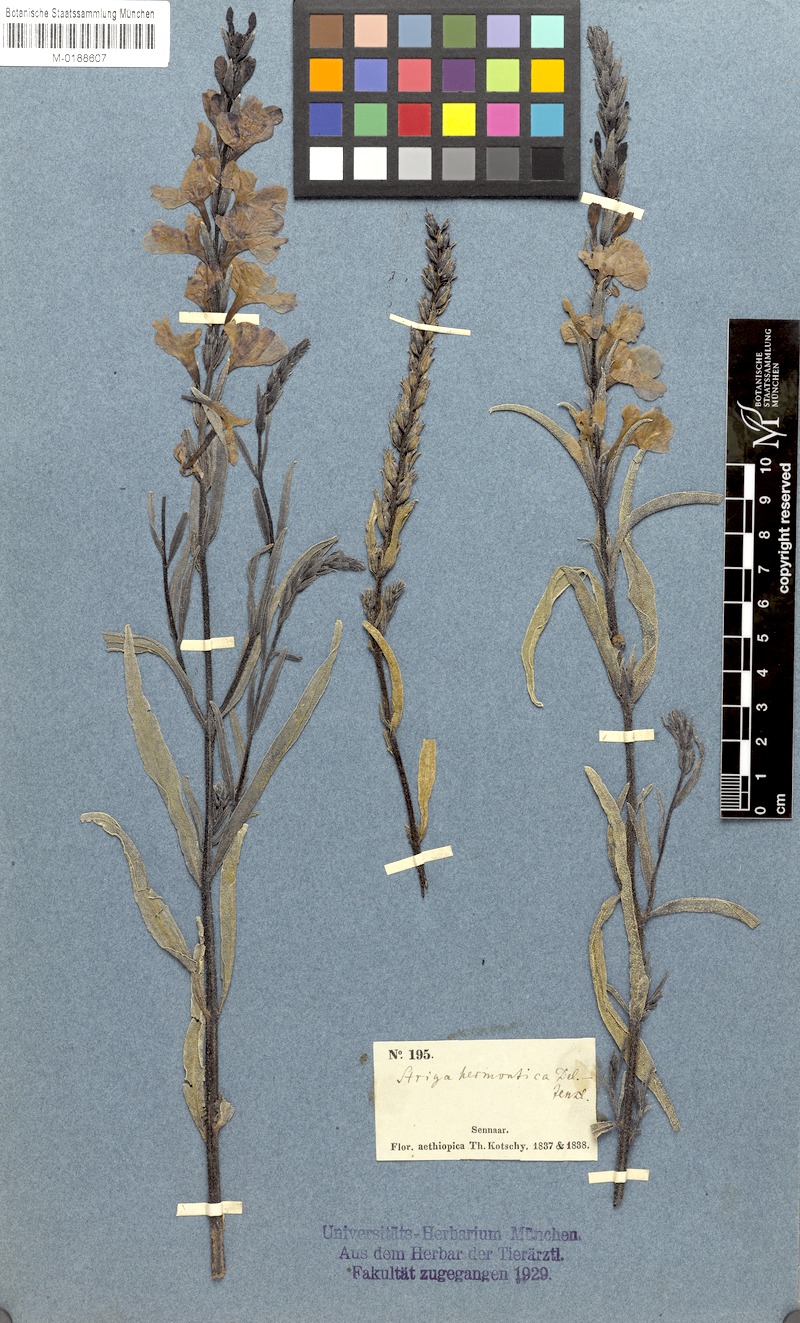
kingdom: Plantae
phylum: Tracheophyta
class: Magnoliopsida
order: Lamiales
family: Orobanchaceae
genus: Striga
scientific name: Striga hermonthica
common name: Purple witchweed
